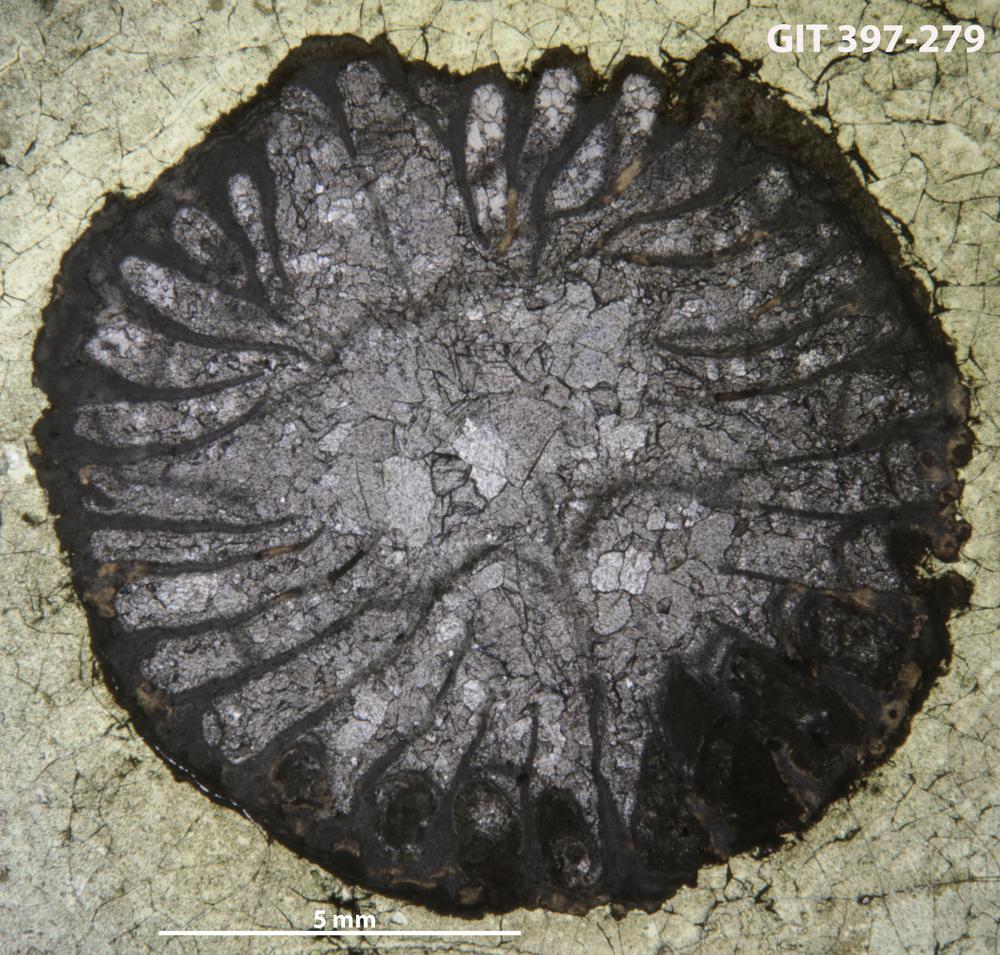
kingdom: Animalia
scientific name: Animalia
